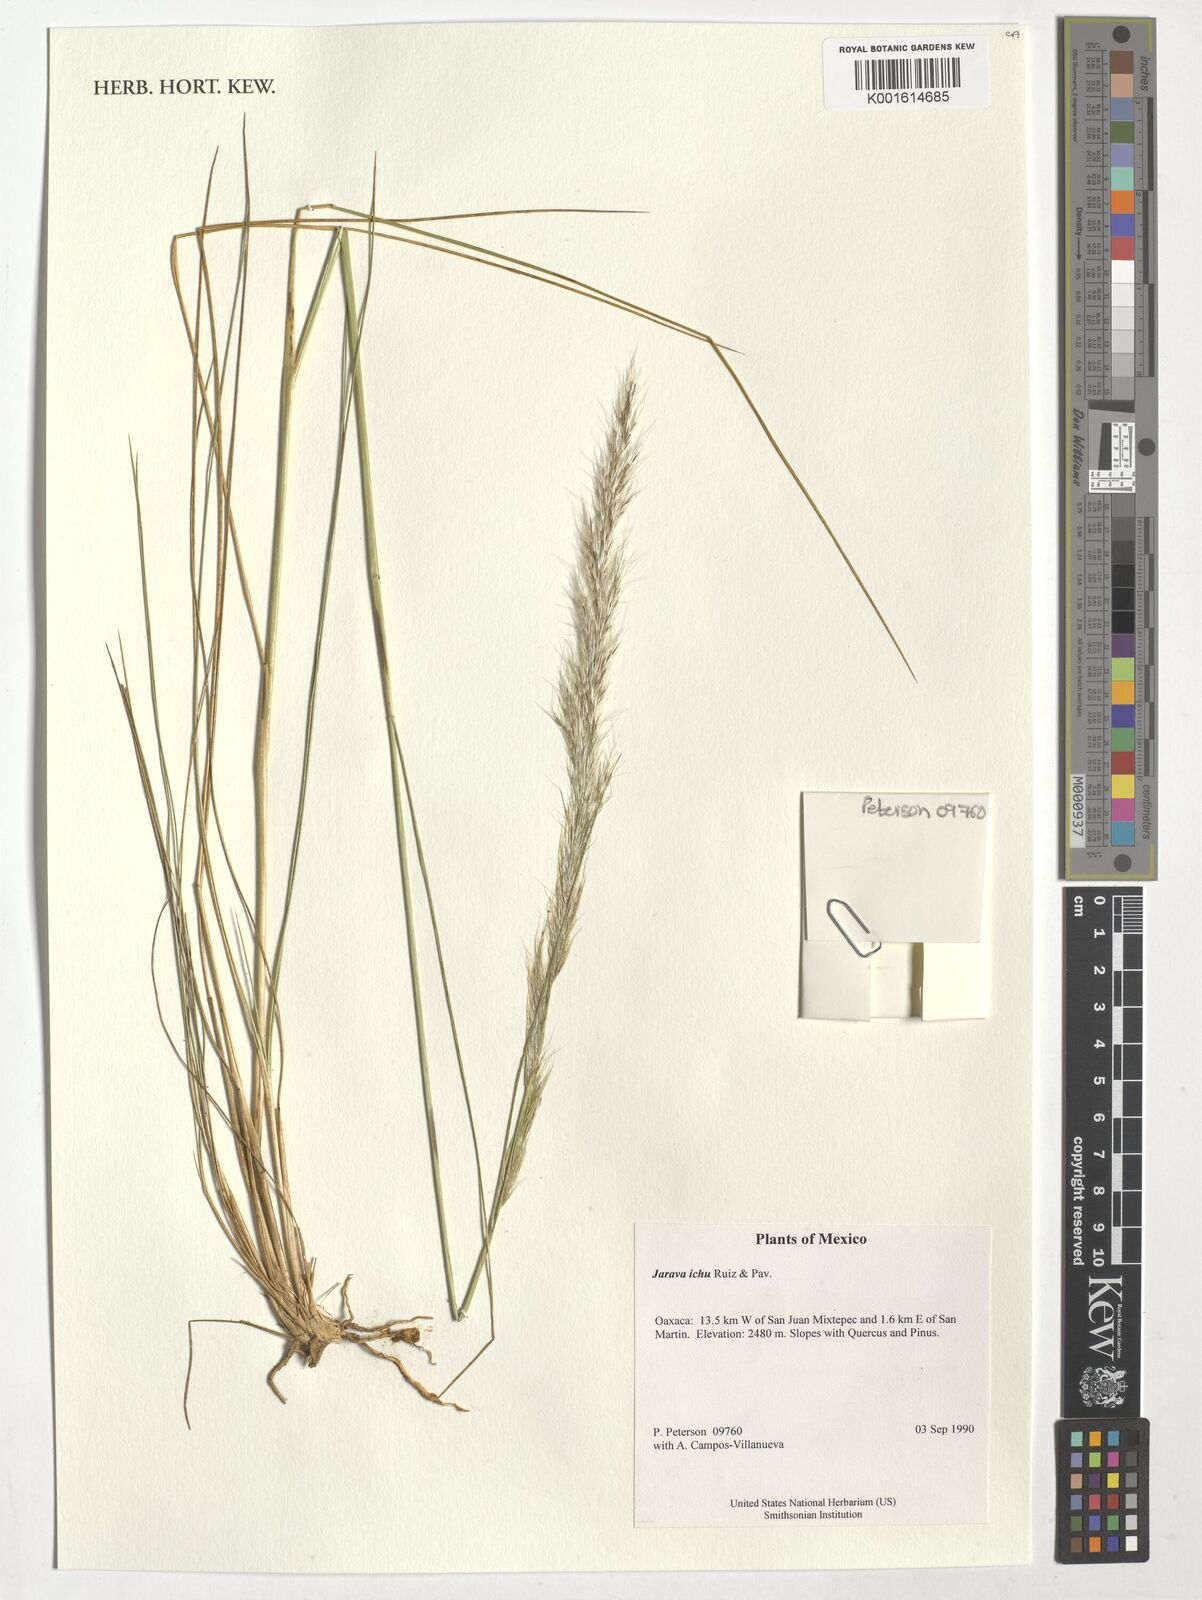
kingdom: Plantae
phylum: Tracheophyta
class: Liliopsida
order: Poales
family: Poaceae
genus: Jarava
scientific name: Jarava ichu
